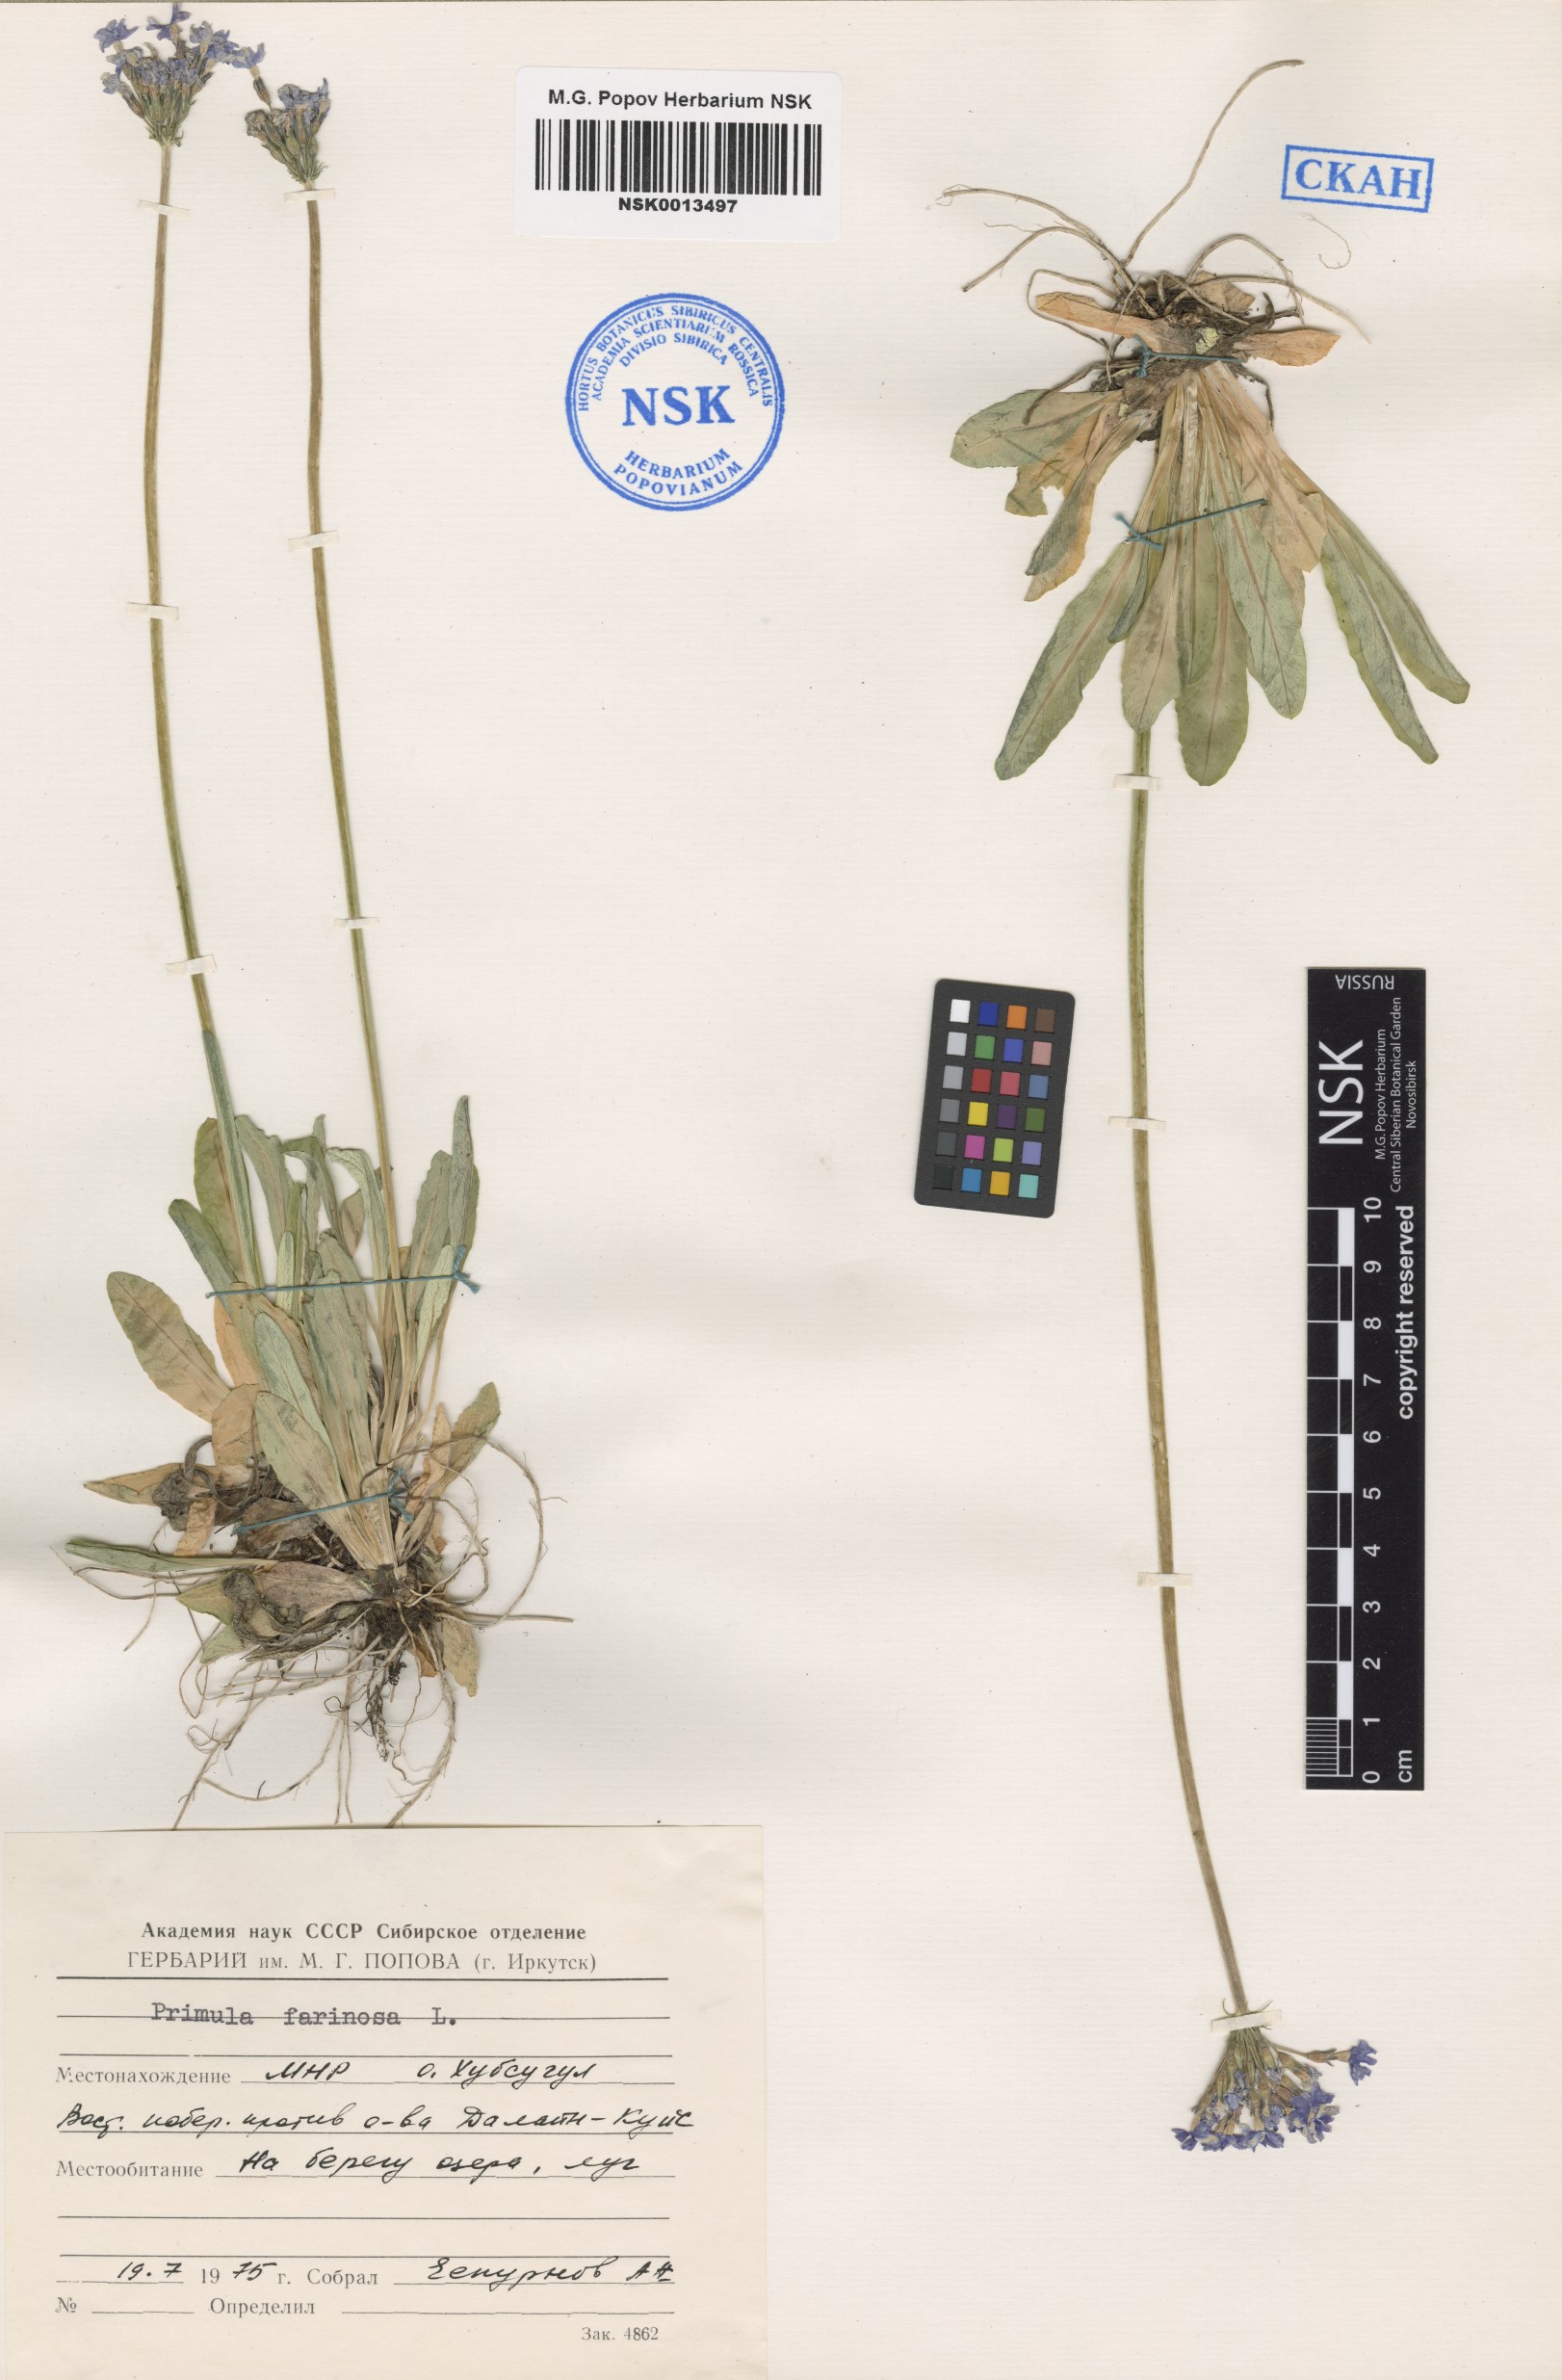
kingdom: Plantae
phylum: Tracheophyta
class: Magnoliopsida
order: Ericales
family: Primulaceae
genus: Primula
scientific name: Primula farinosa
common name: Bird's-eye primrose
